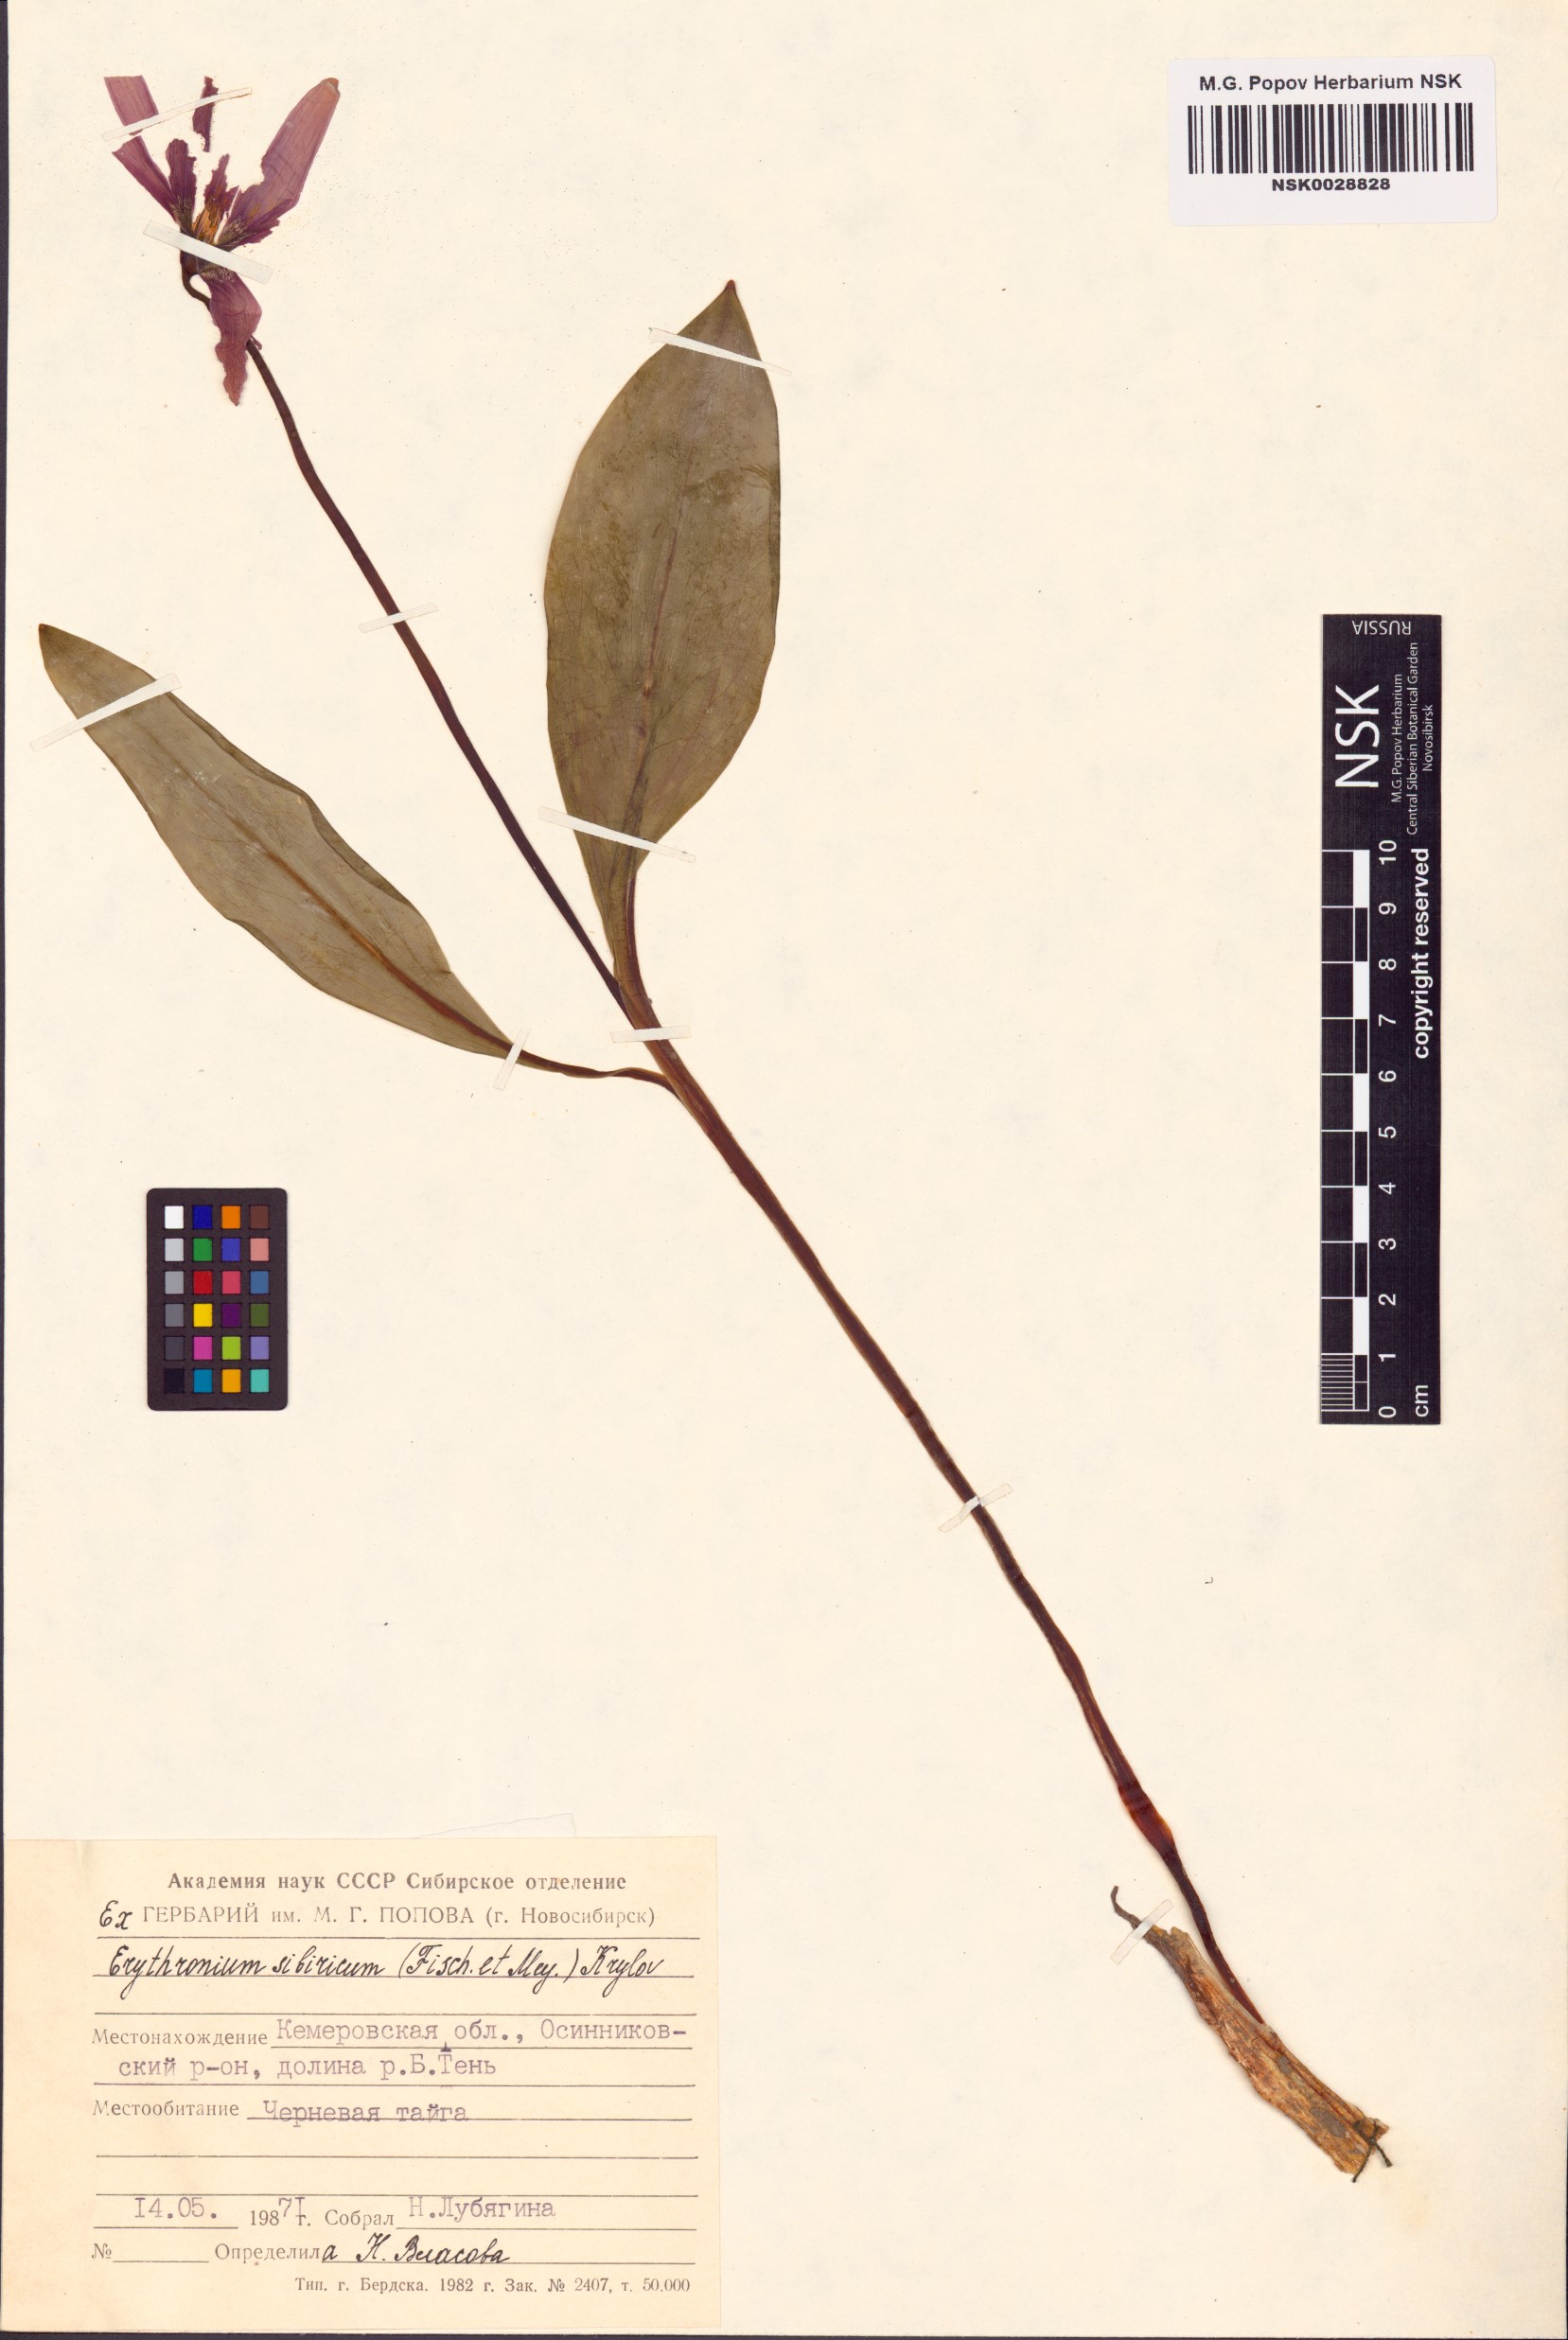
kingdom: Plantae
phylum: Tracheophyta
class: Liliopsida
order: Liliales
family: Liliaceae
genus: Erythronium
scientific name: Erythronium sibiricum
